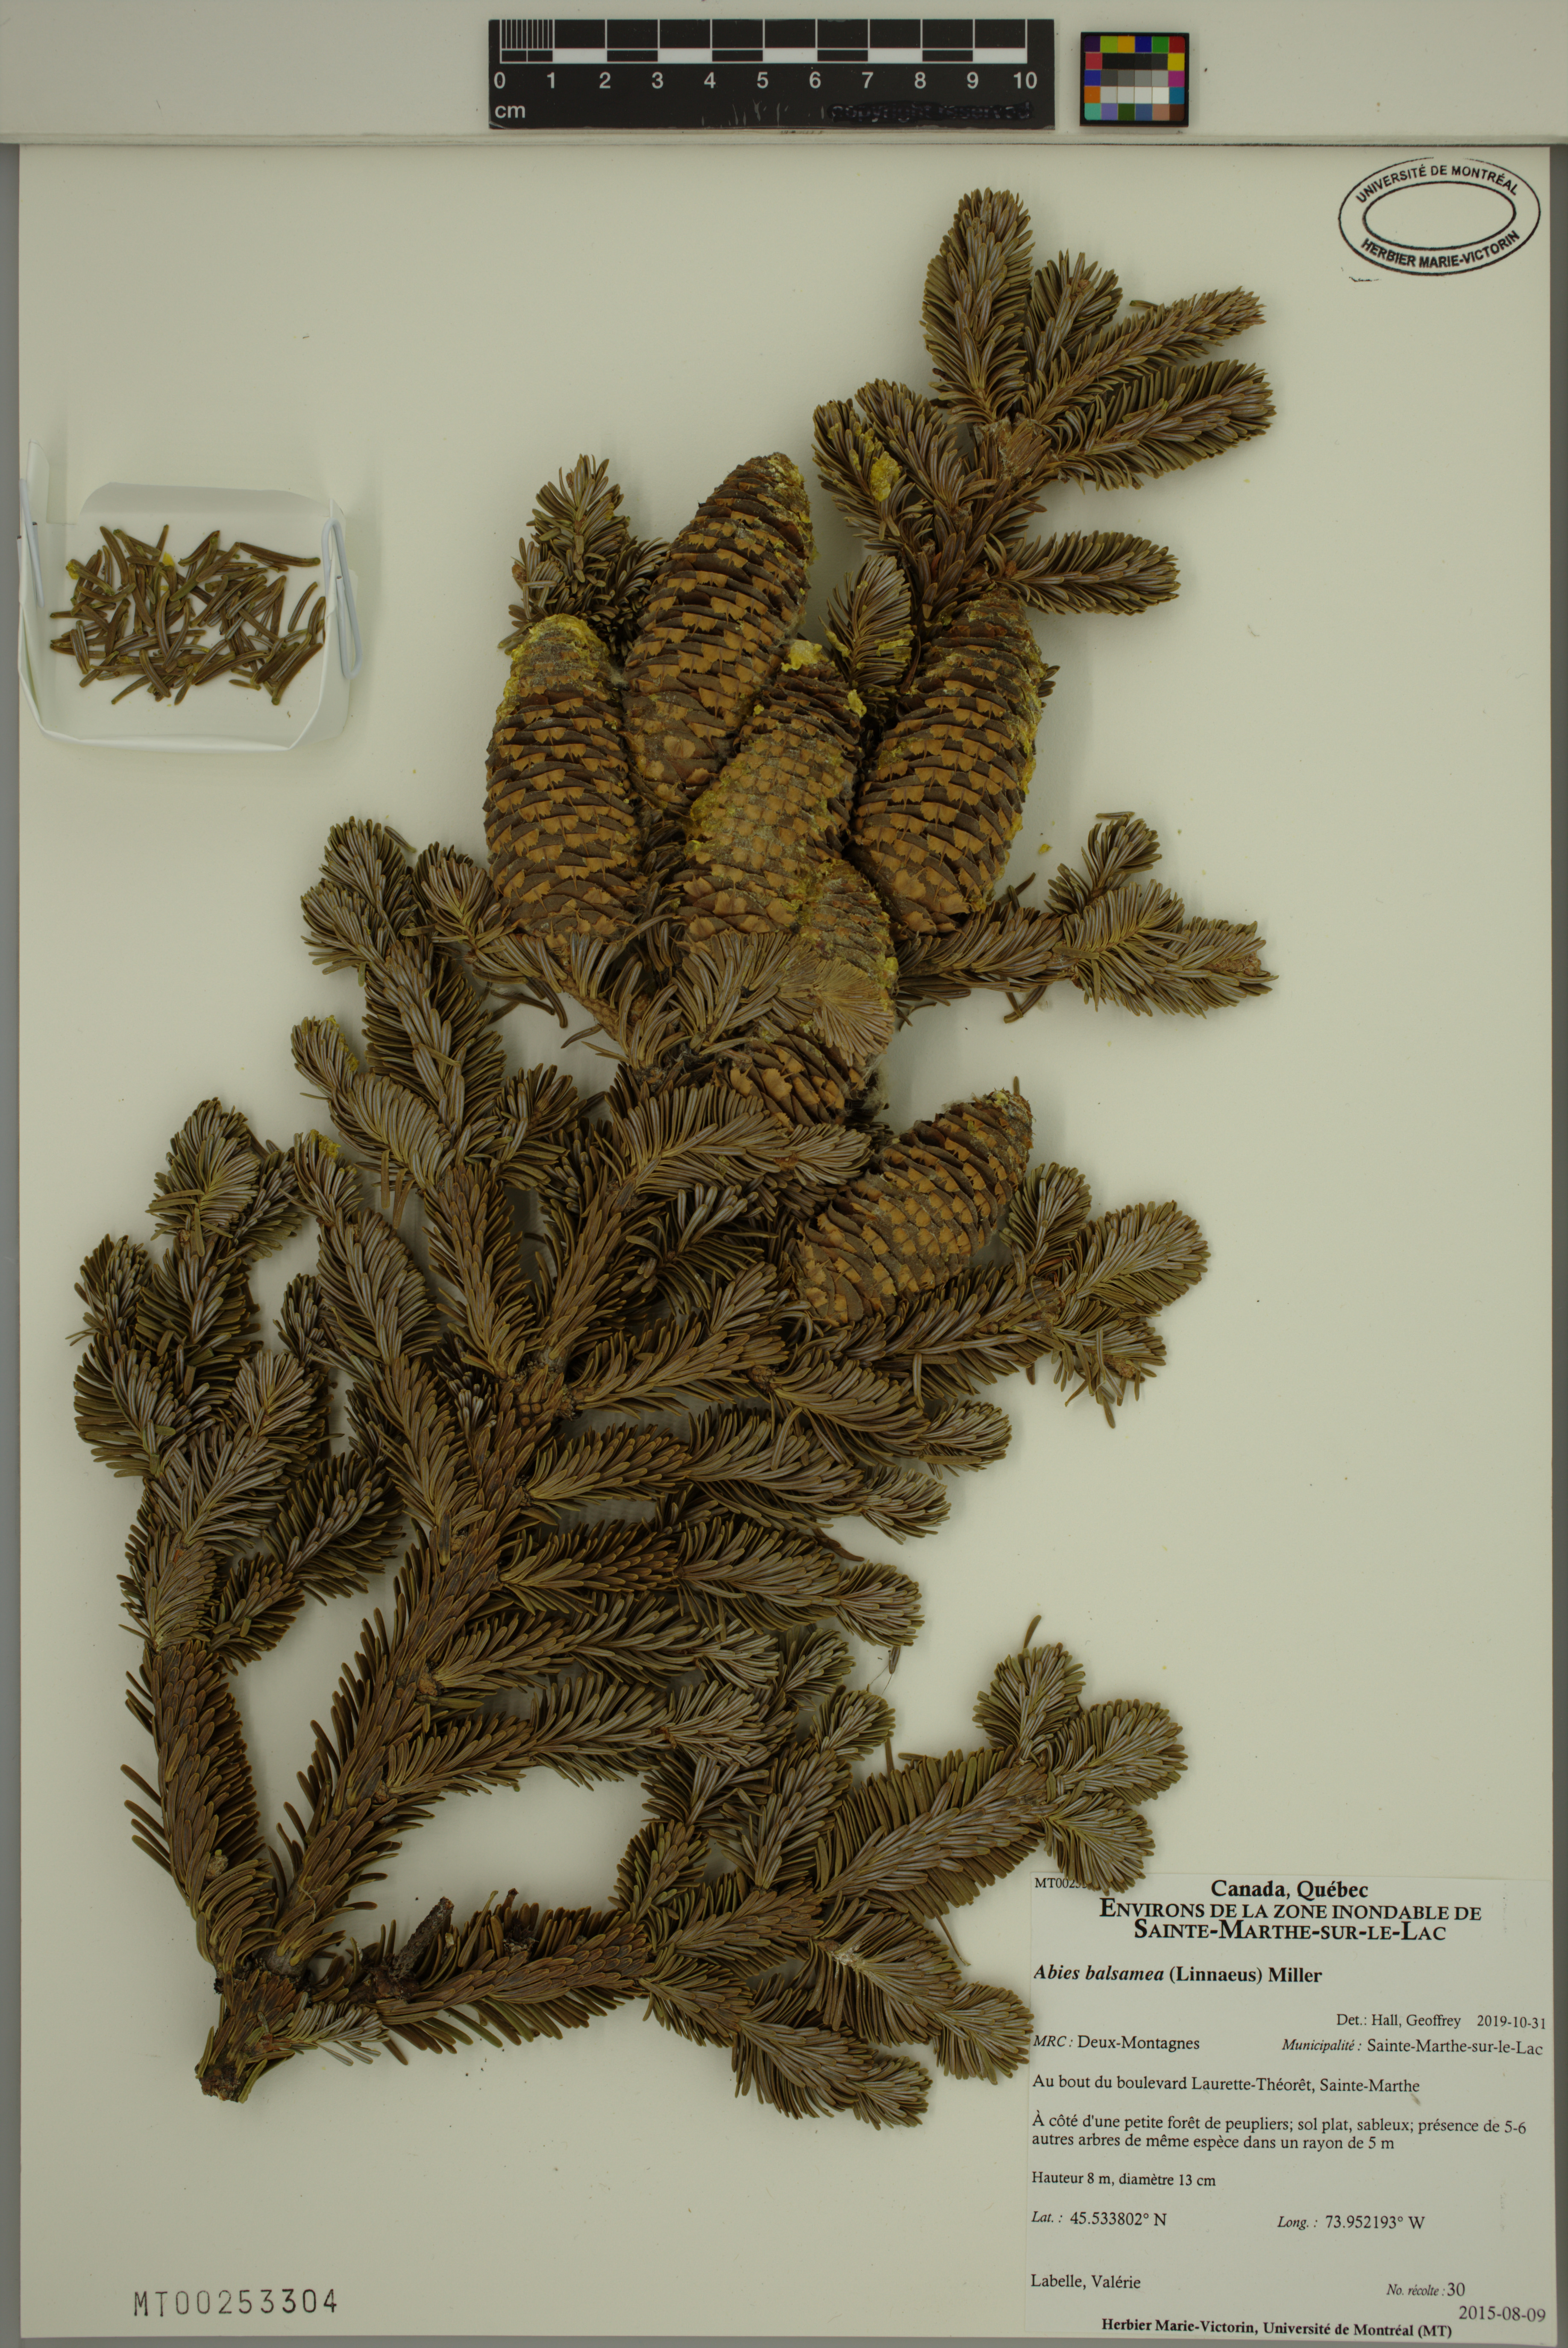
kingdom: Plantae
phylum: Tracheophyta
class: Pinopsida
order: Pinales
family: Pinaceae
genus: Abies
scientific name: Abies balsamea
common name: Balsam fir
